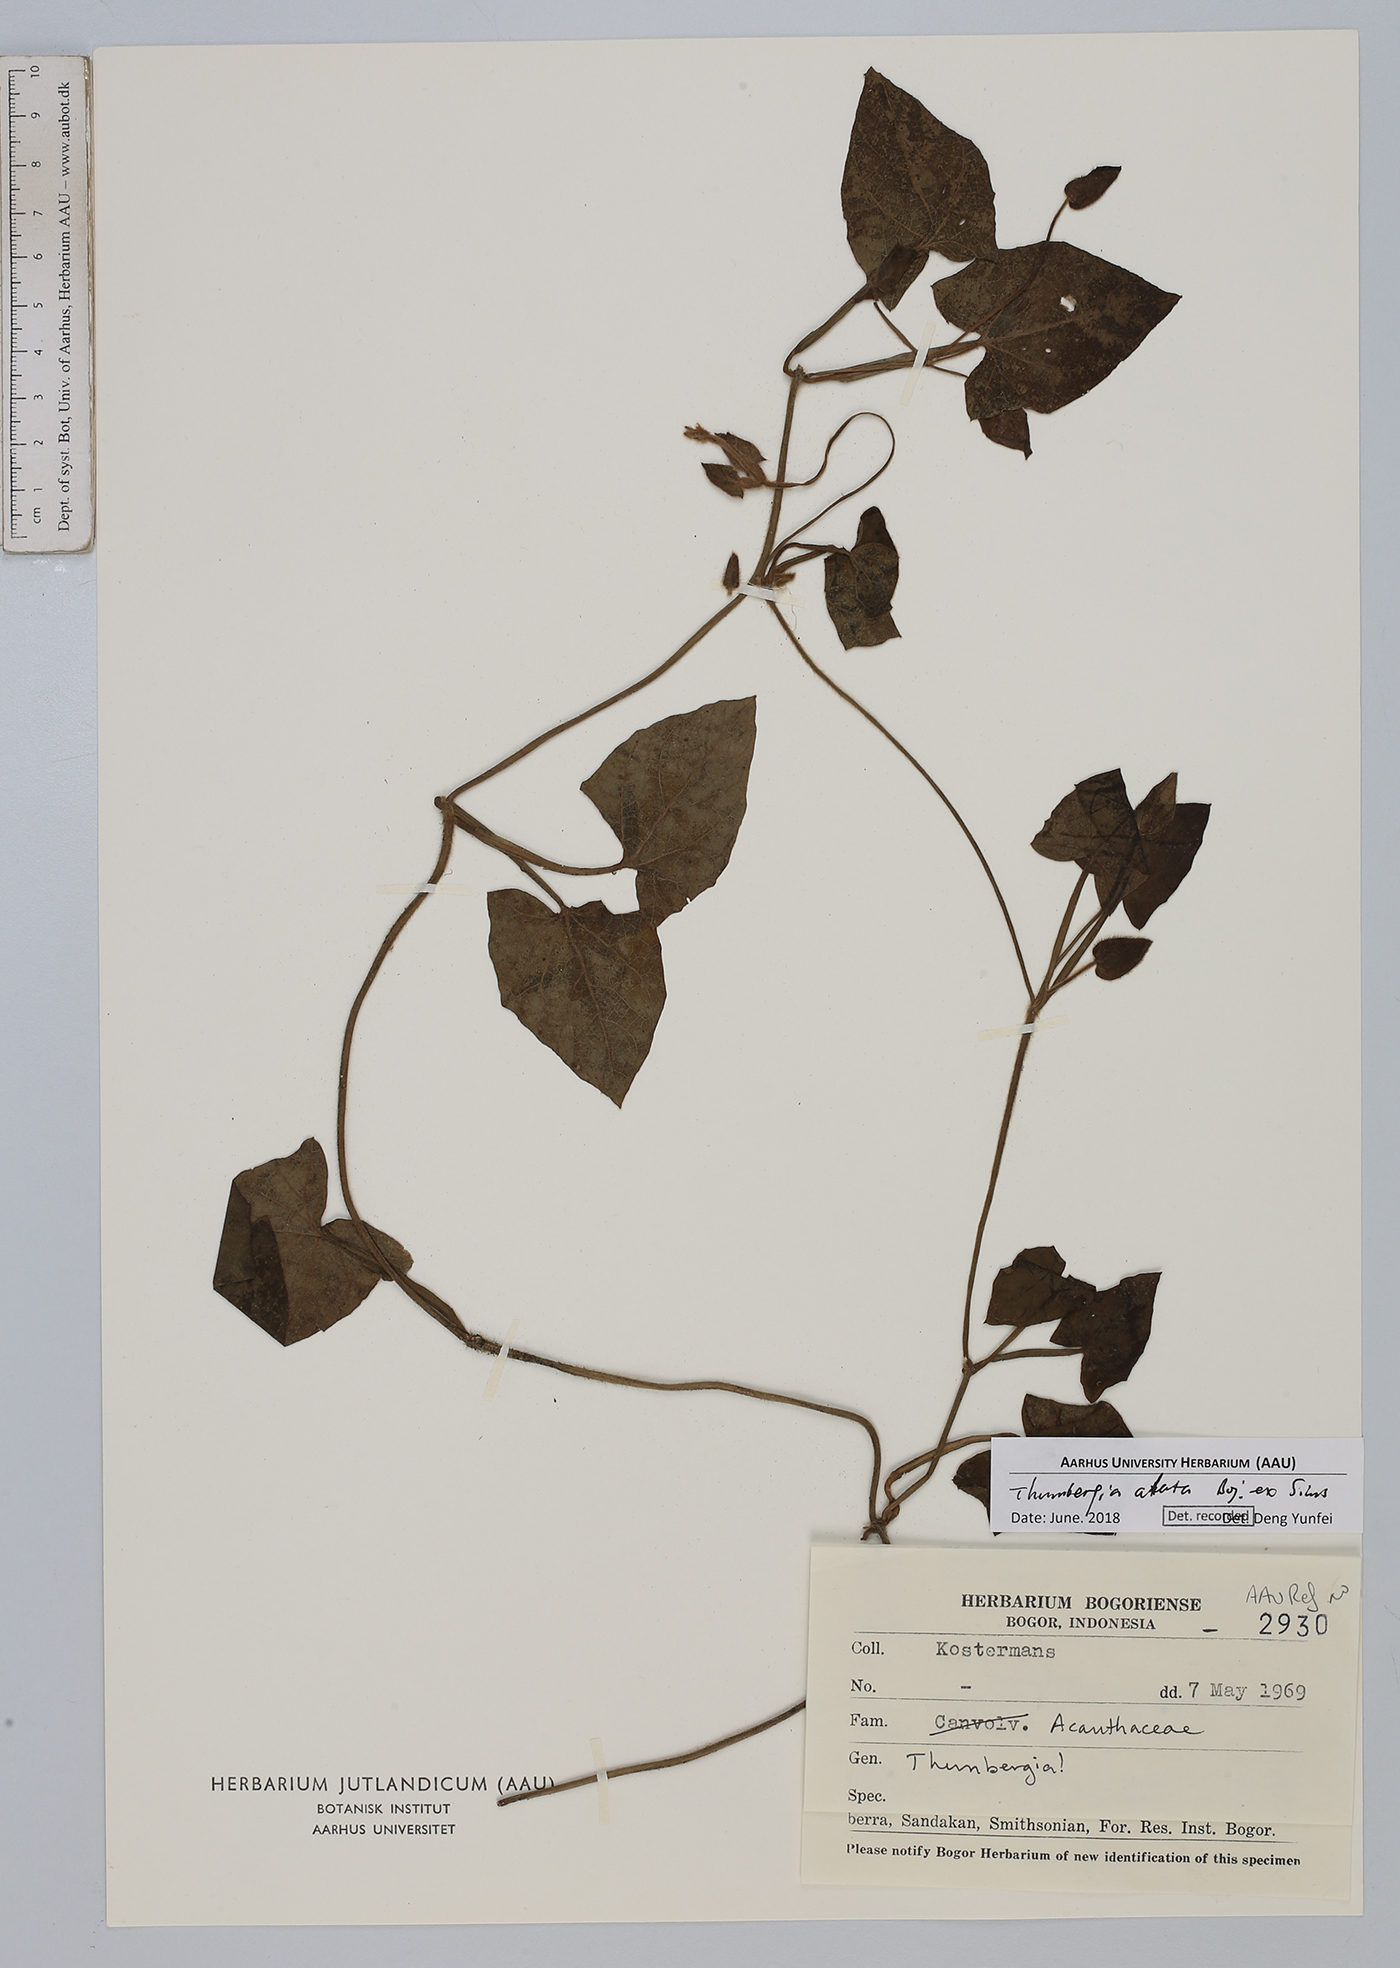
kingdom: Plantae
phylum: Tracheophyta
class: Magnoliopsida
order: Lamiales
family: Acanthaceae
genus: Thunbergia
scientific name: Thunbergia alata
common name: Blackeyed susan vine
